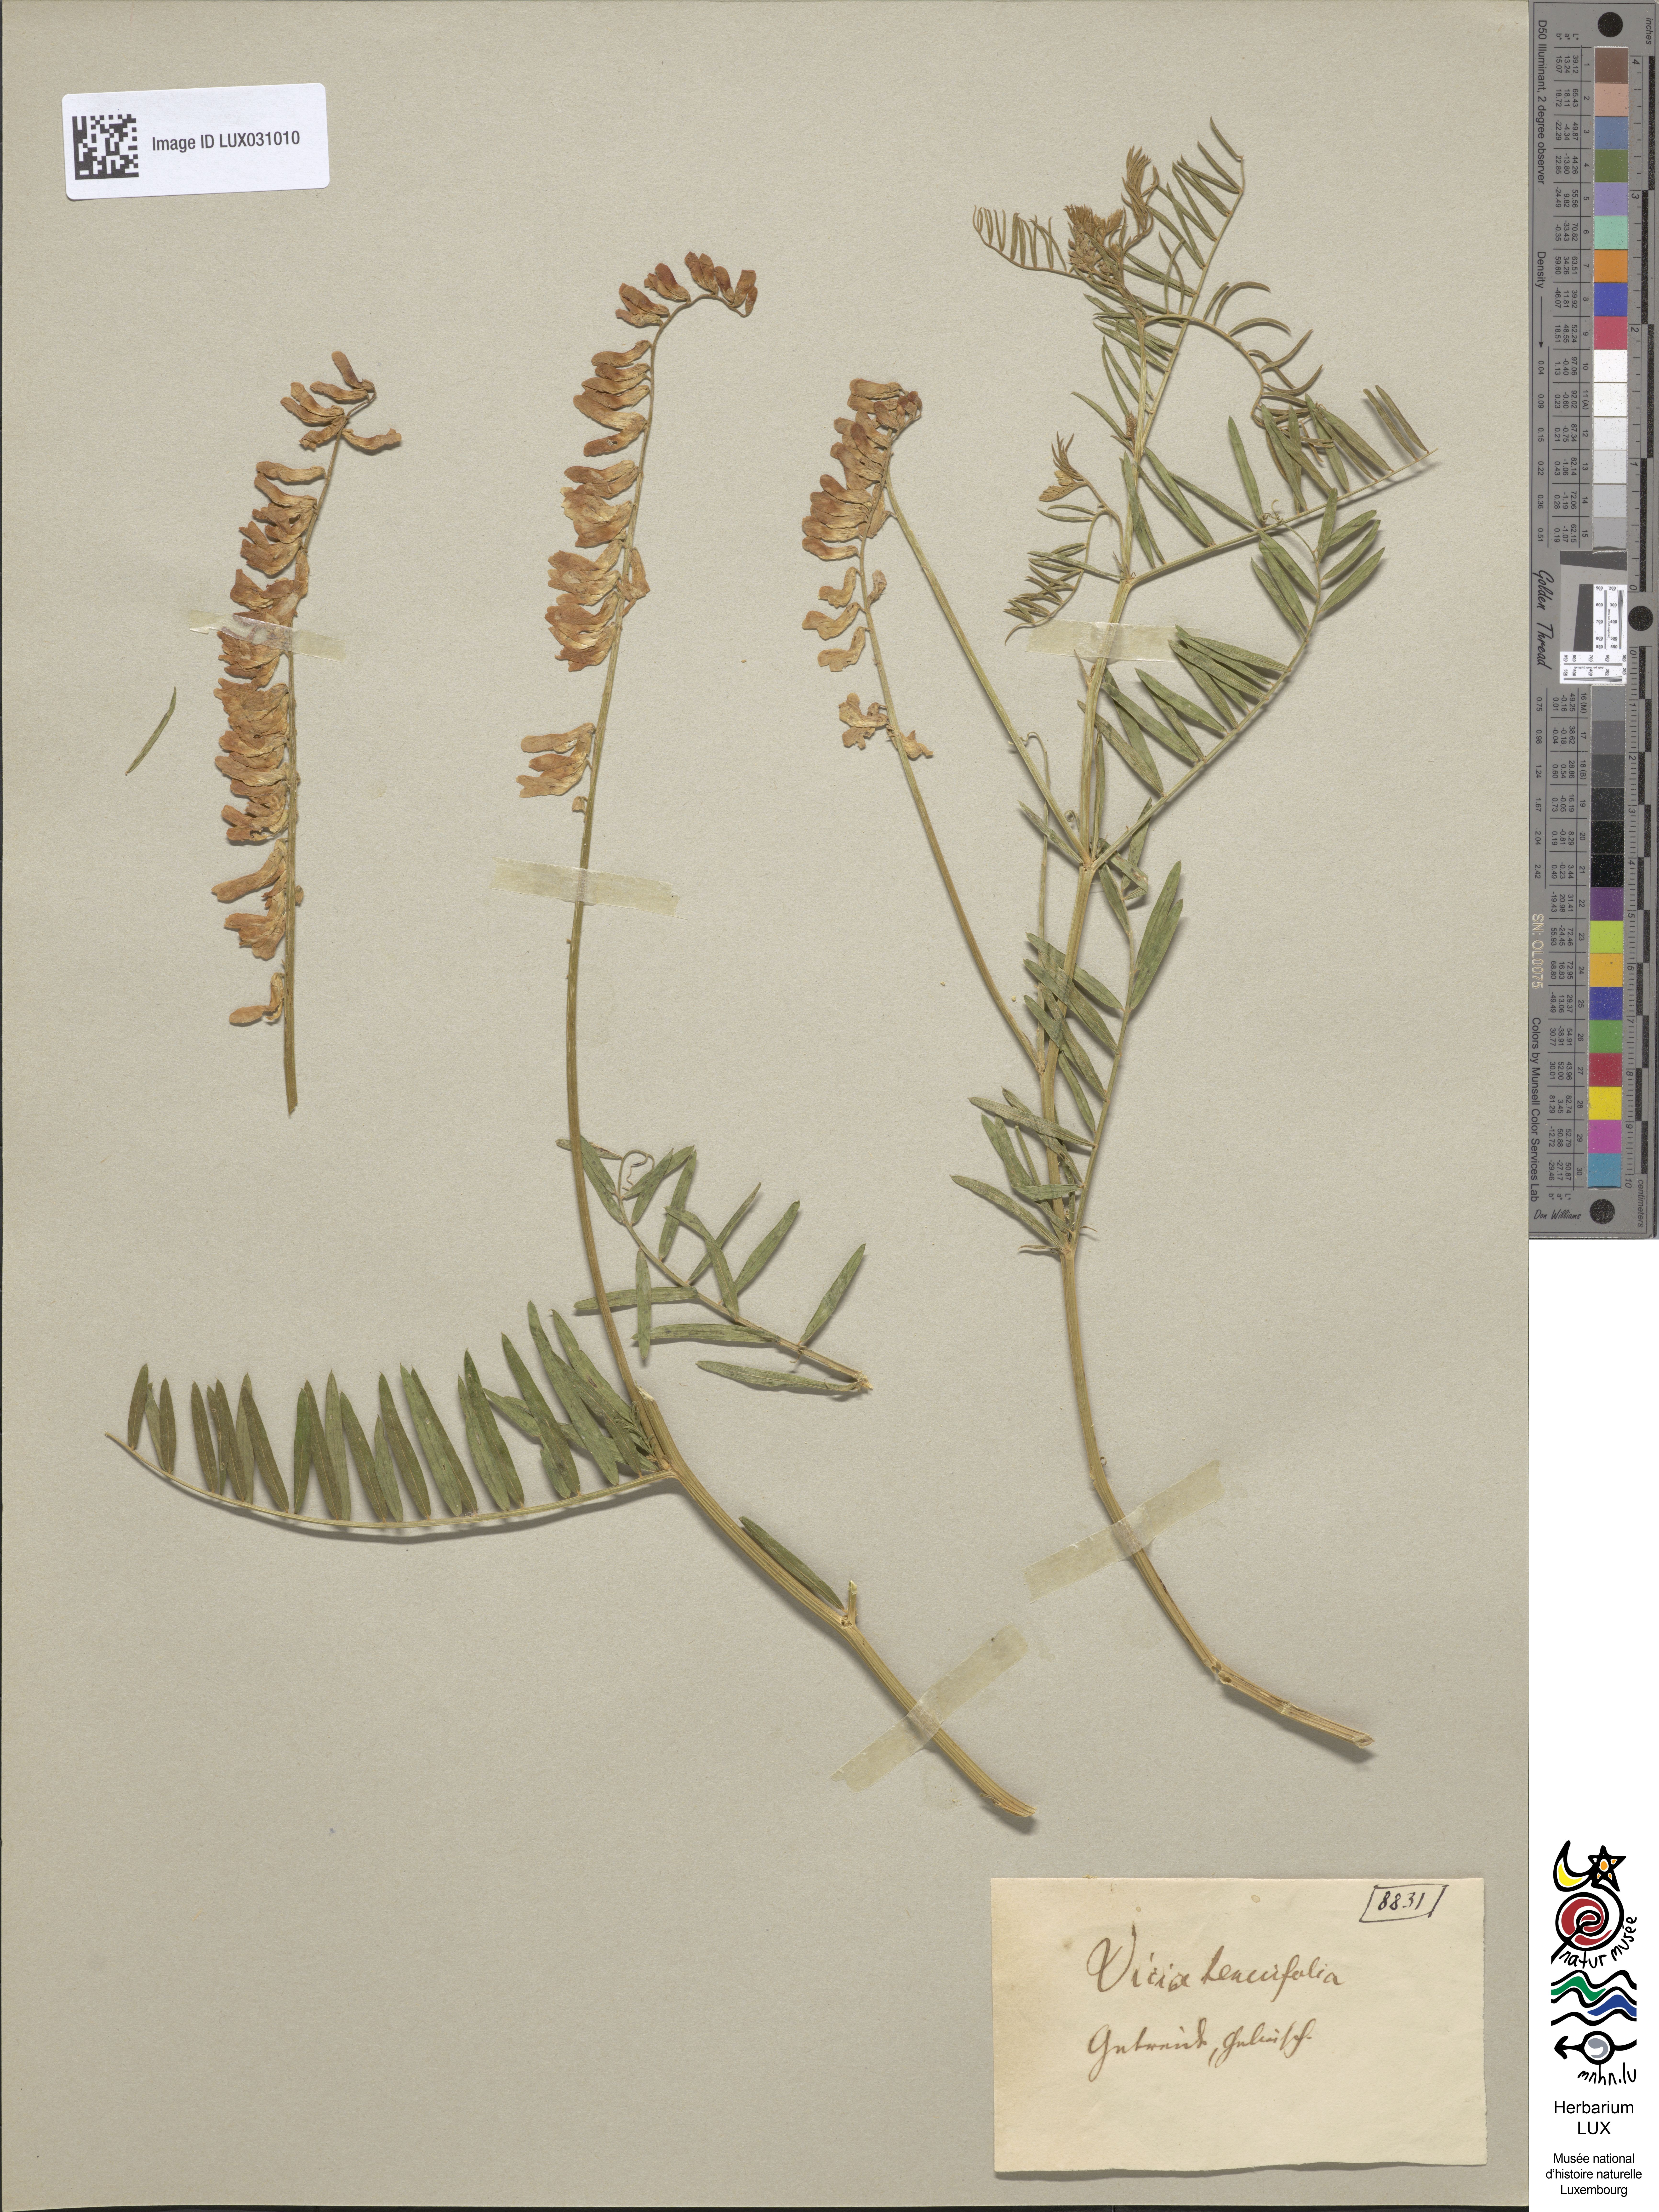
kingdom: Plantae
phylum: Tracheophyta
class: Magnoliopsida
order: Fabales
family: Fabaceae
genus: Vicia
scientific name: Vicia tenuifolia
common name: Fine-leaved vetch
